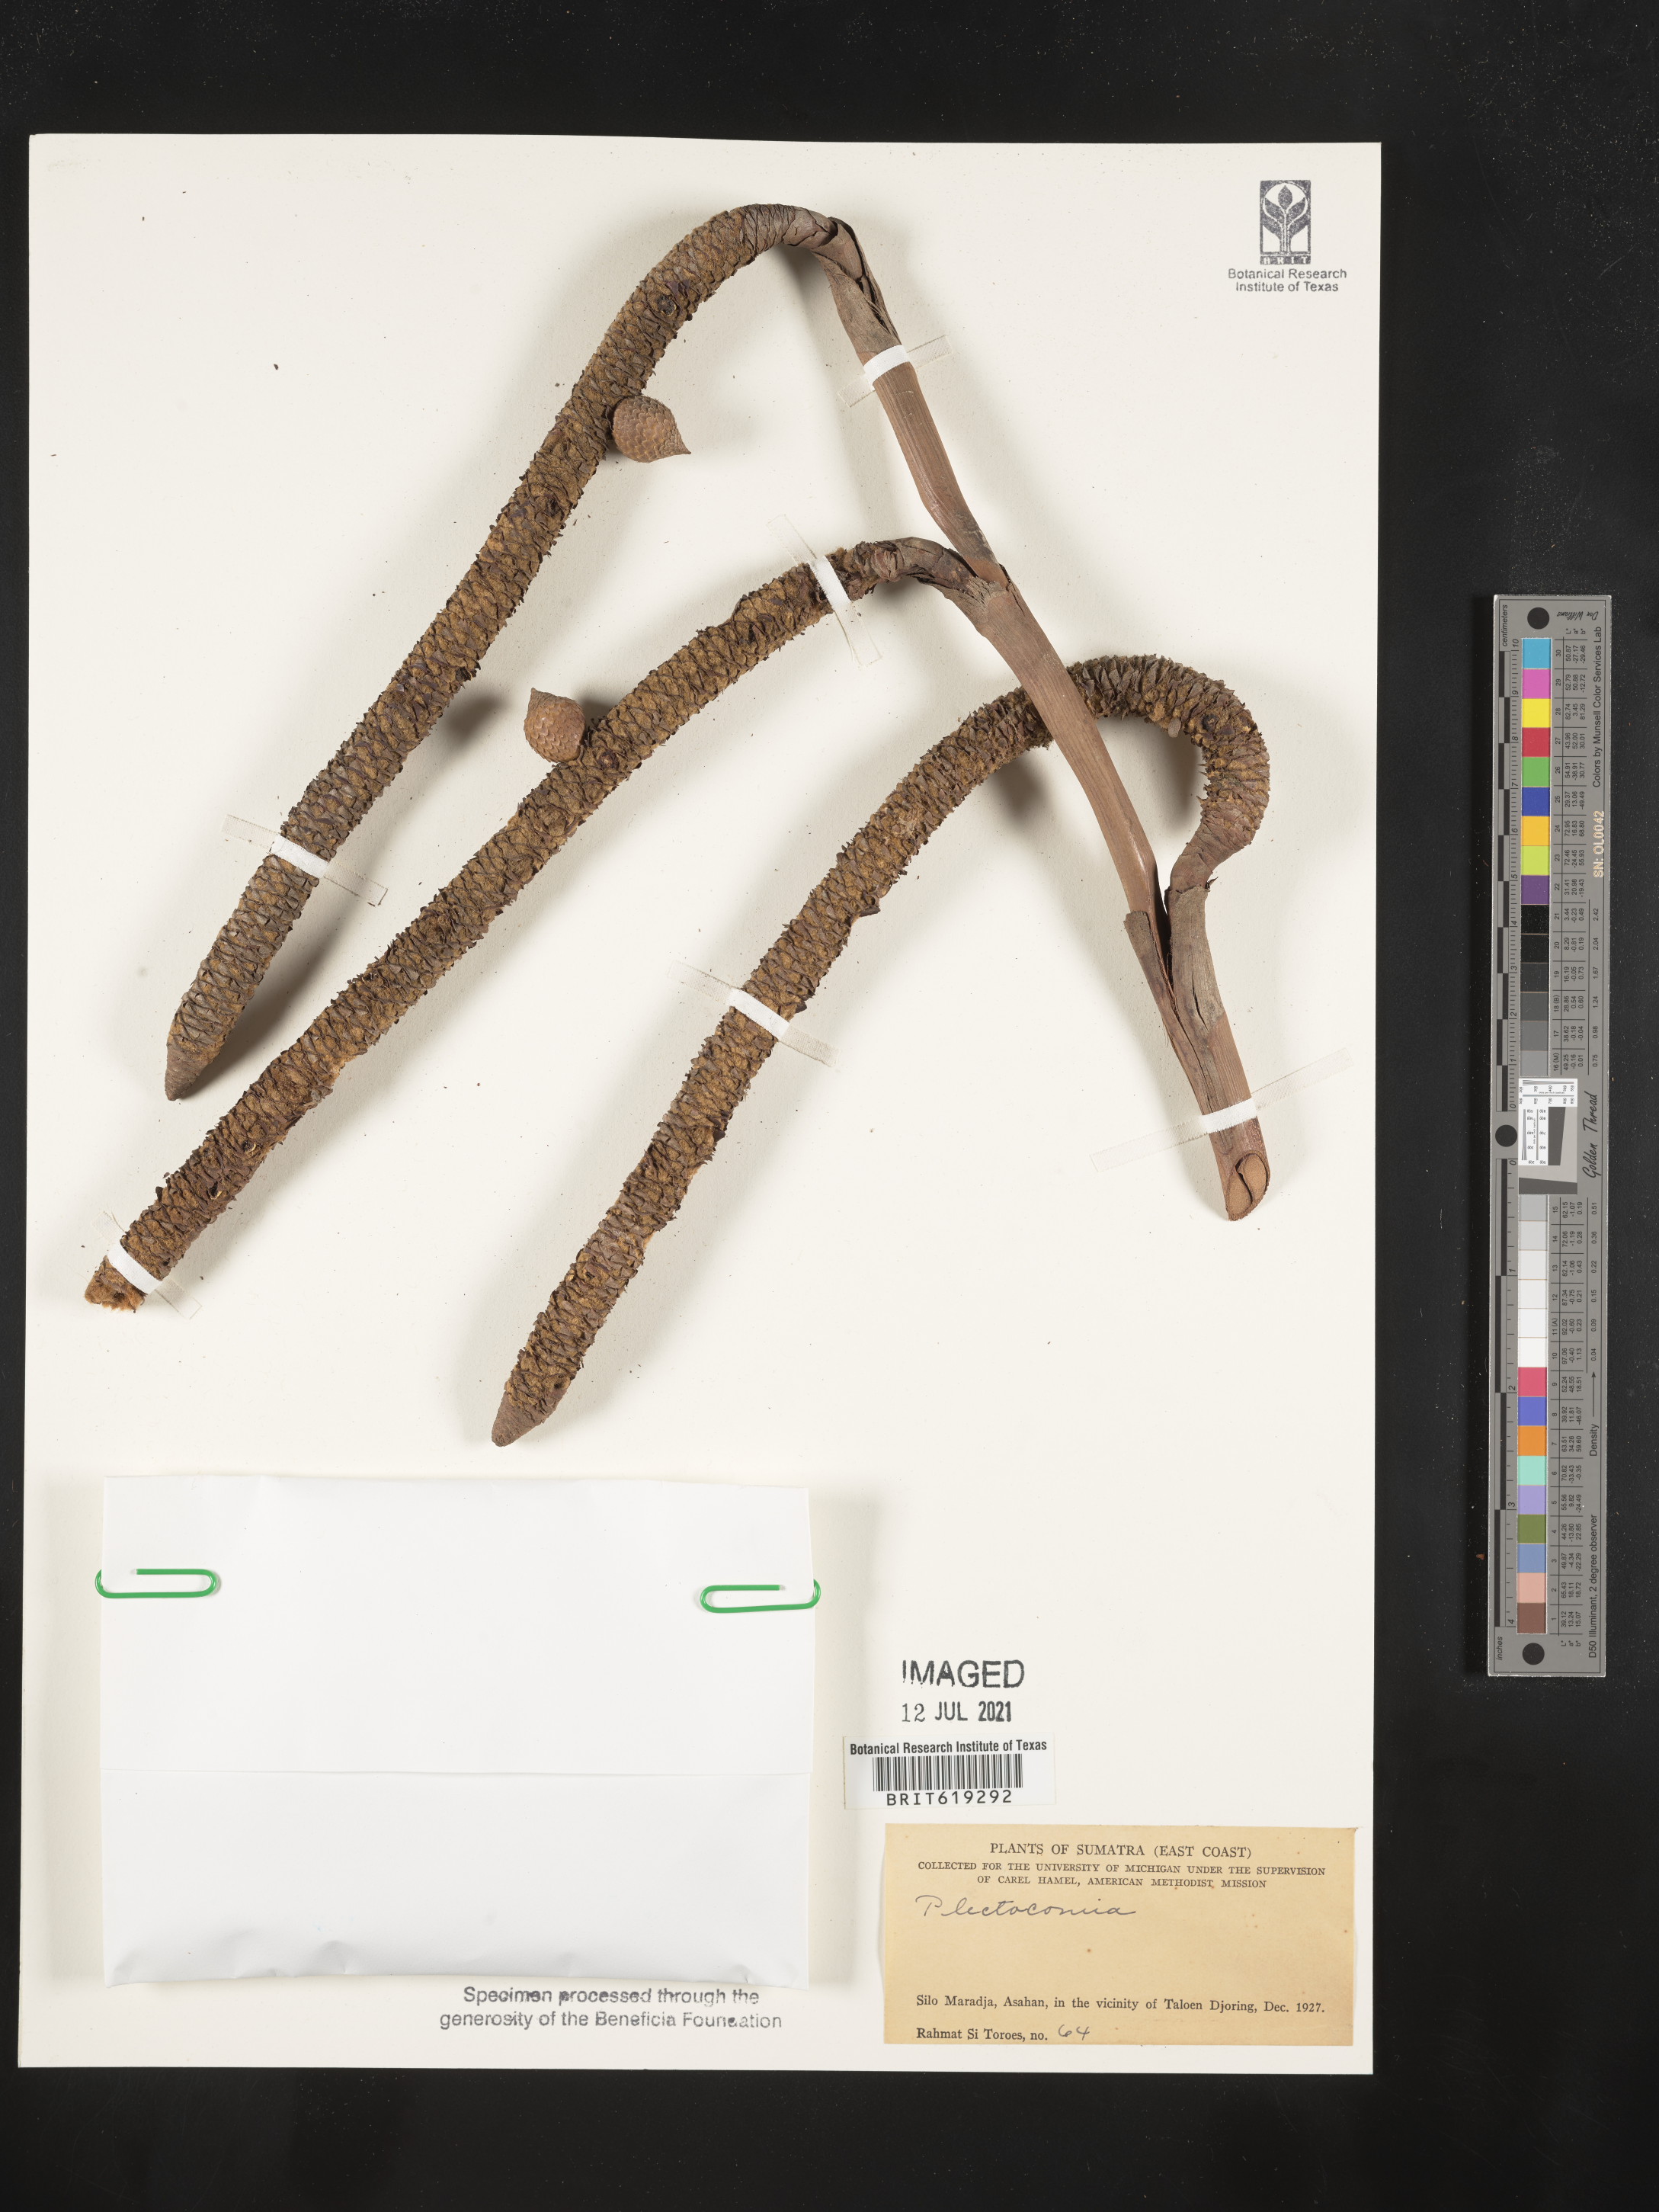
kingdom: Plantae
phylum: Tracheophyta
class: Liliopsida
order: Arecales
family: Arecaceae
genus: Plectocomia
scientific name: Plectocomia
